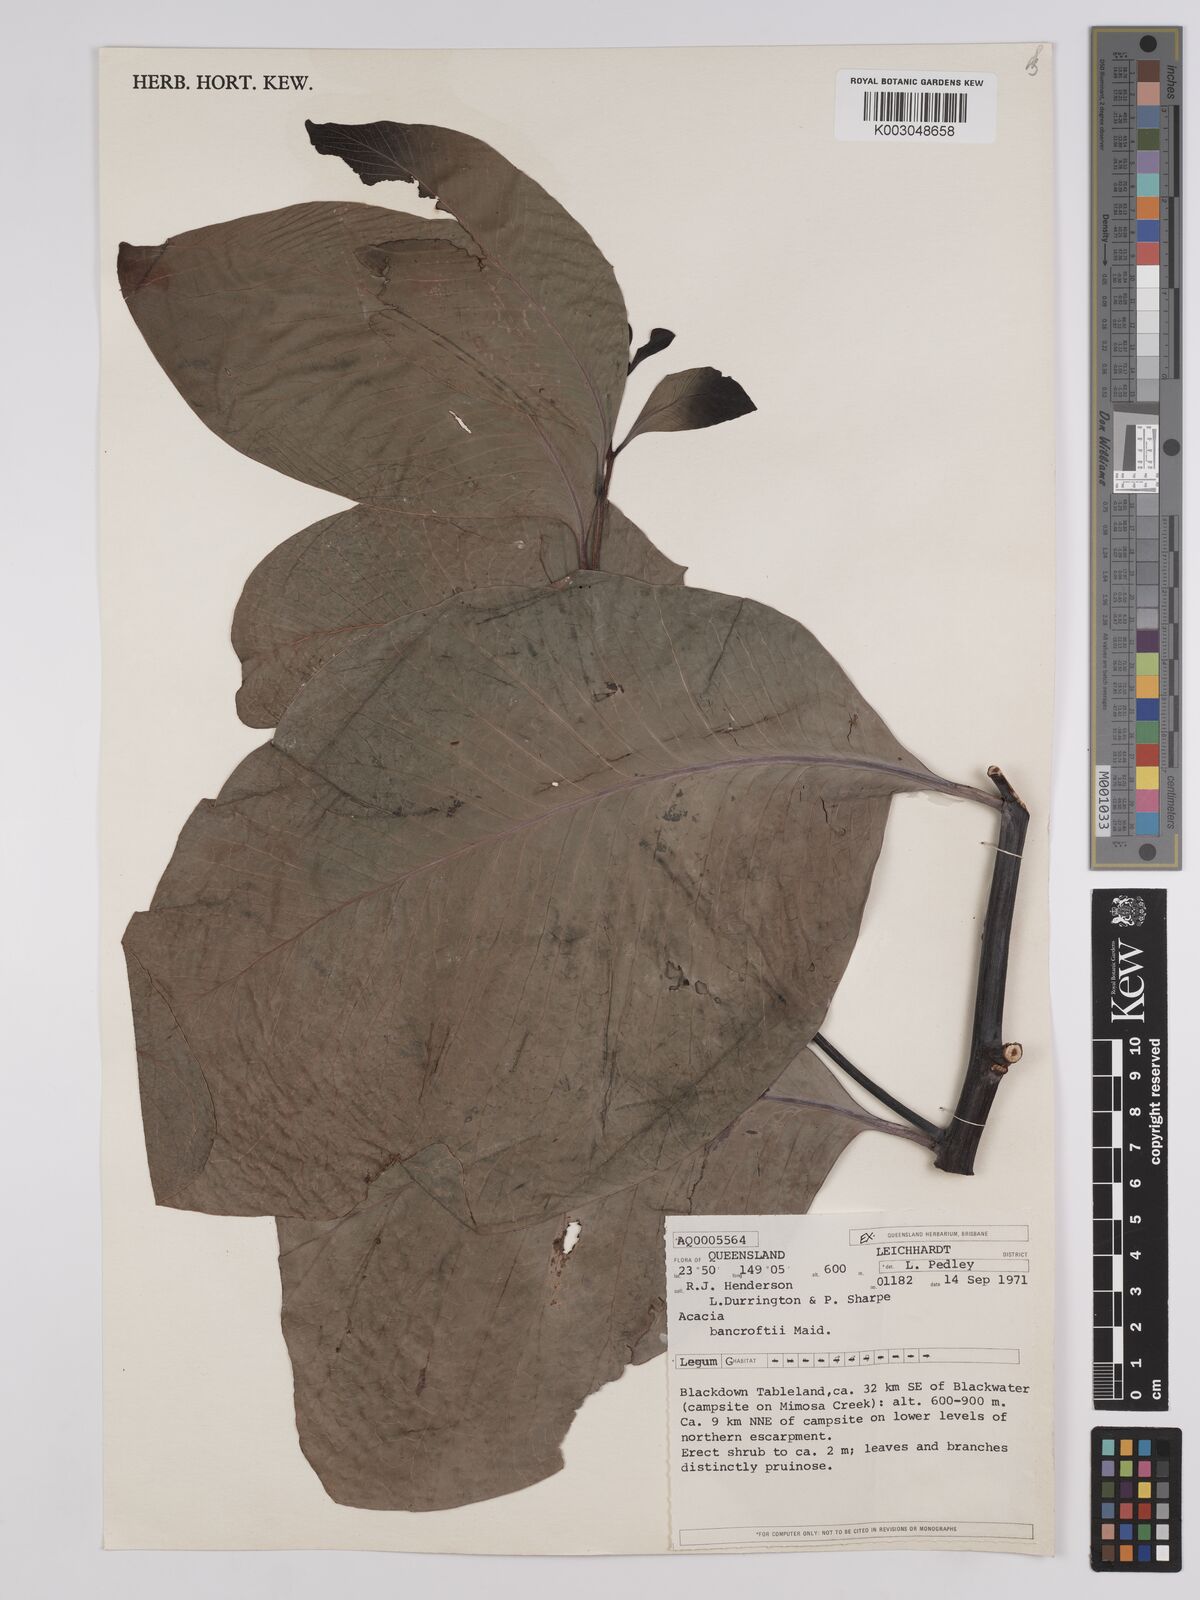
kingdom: Plantae
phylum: Tracheophyta
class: Magnoliopsida
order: Fabales
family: Fabaceae
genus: Acacia
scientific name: Acacia
